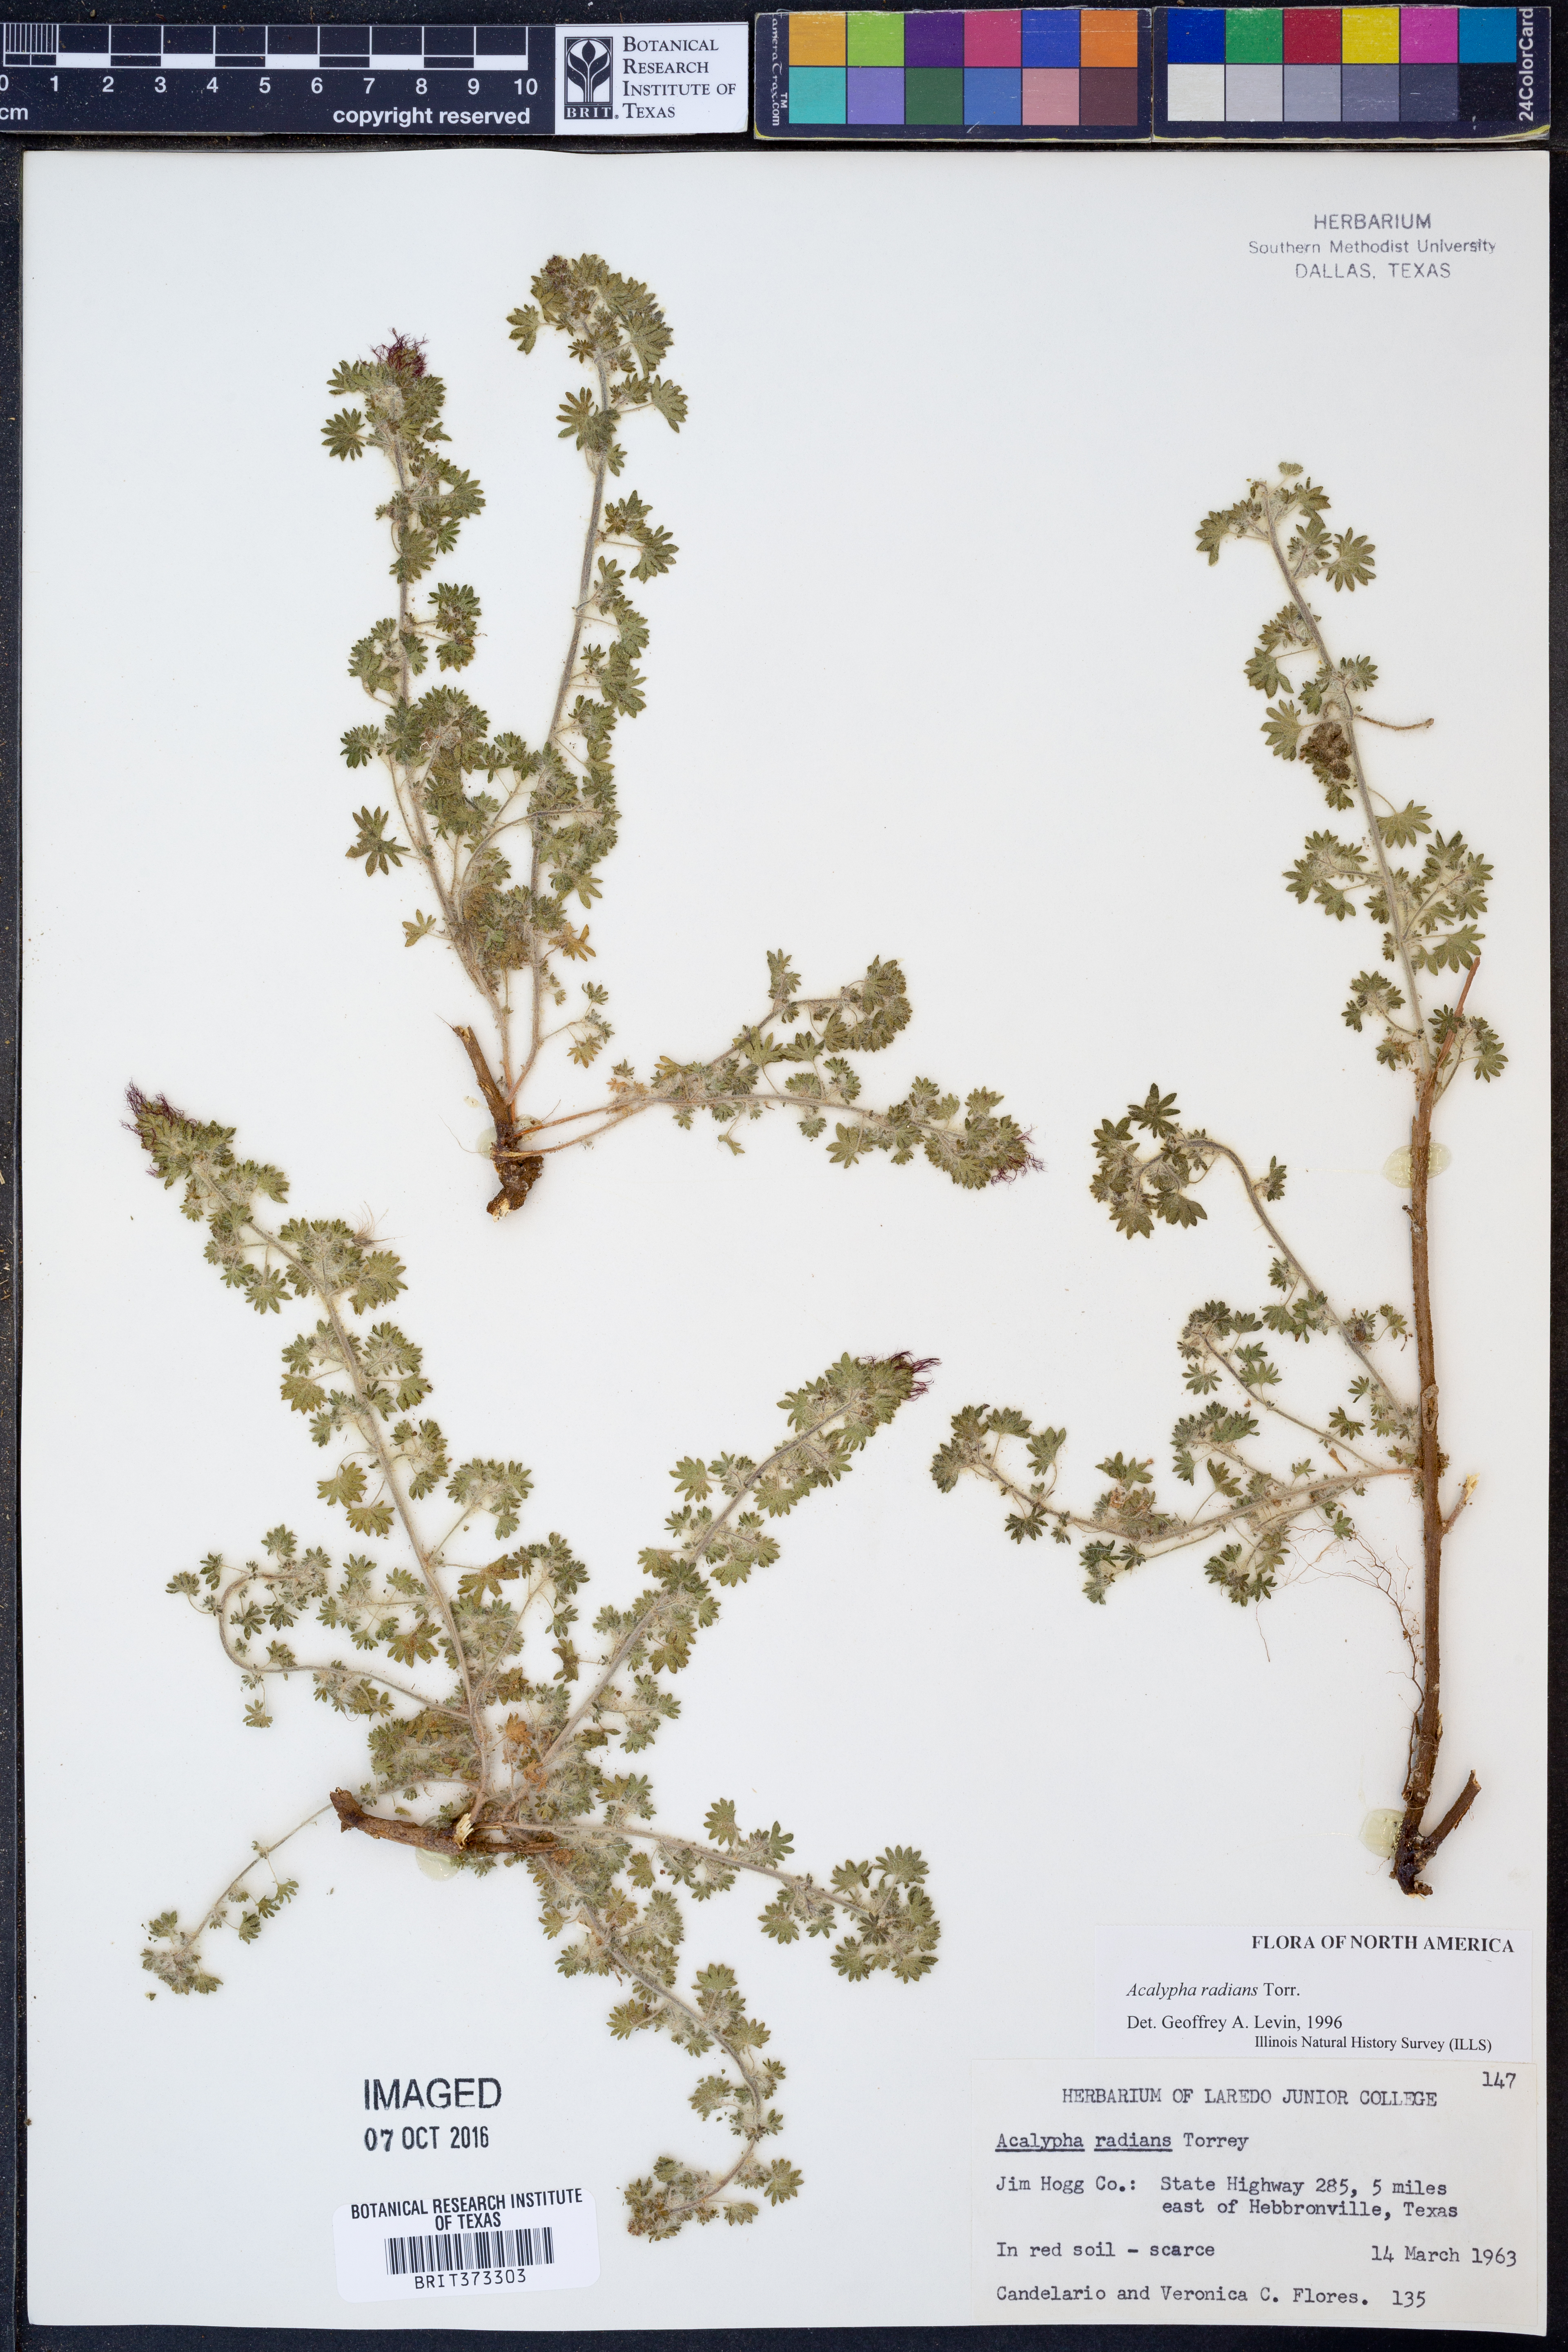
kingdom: Plantae
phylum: Tracheophyta
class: Magnoliopsida
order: Malpighiales
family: Euphorbiaceae
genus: Acalypha
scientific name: Acalypha radians
